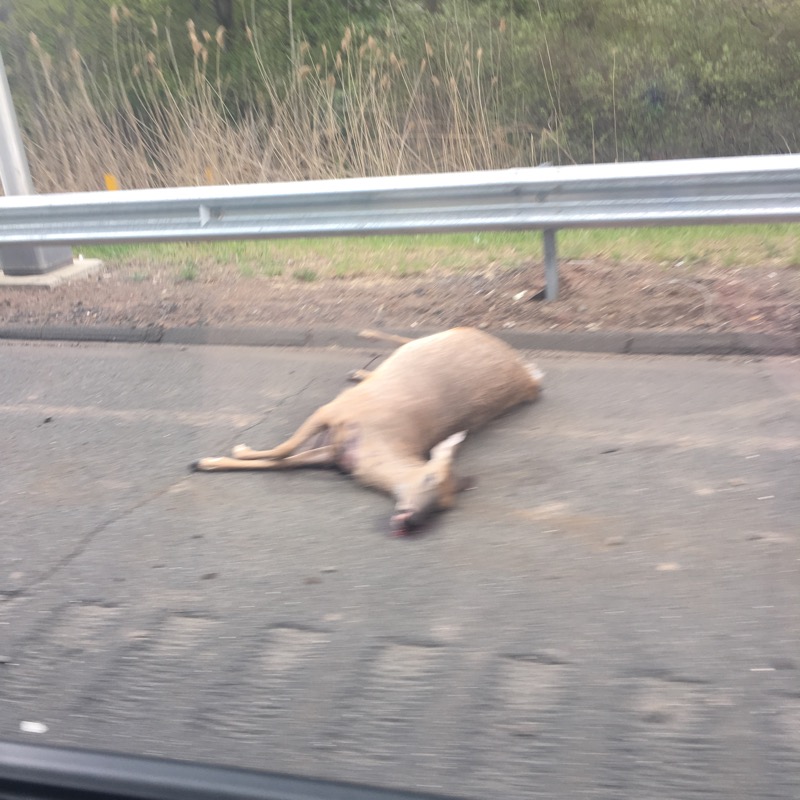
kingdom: Animalia
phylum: Chordata
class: Mammalia
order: Artiodactyla
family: Cervidae
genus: Capreolus
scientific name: Capreolus capreolus
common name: Western roe deer
